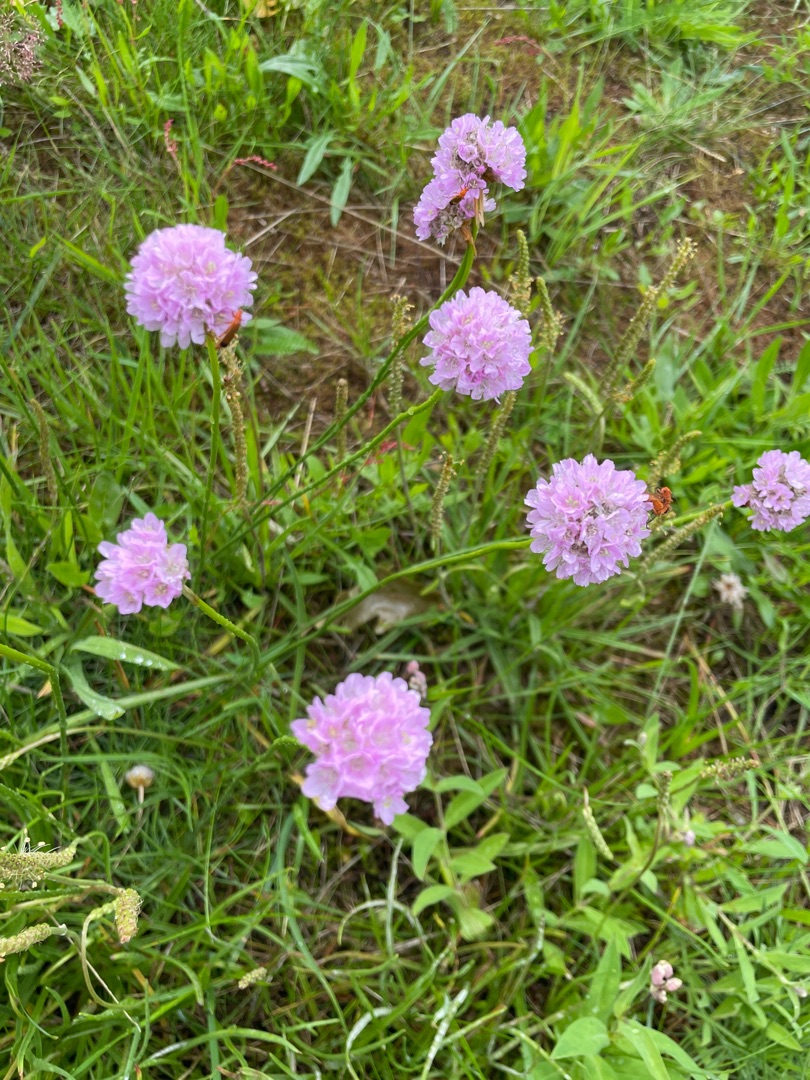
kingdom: Plantae
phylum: Tracheophyta
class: Magnoliopsida
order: Caryophyllales
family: Plumbaginaceae
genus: Armeria
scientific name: Armeria maritima
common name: Engelskgræs
